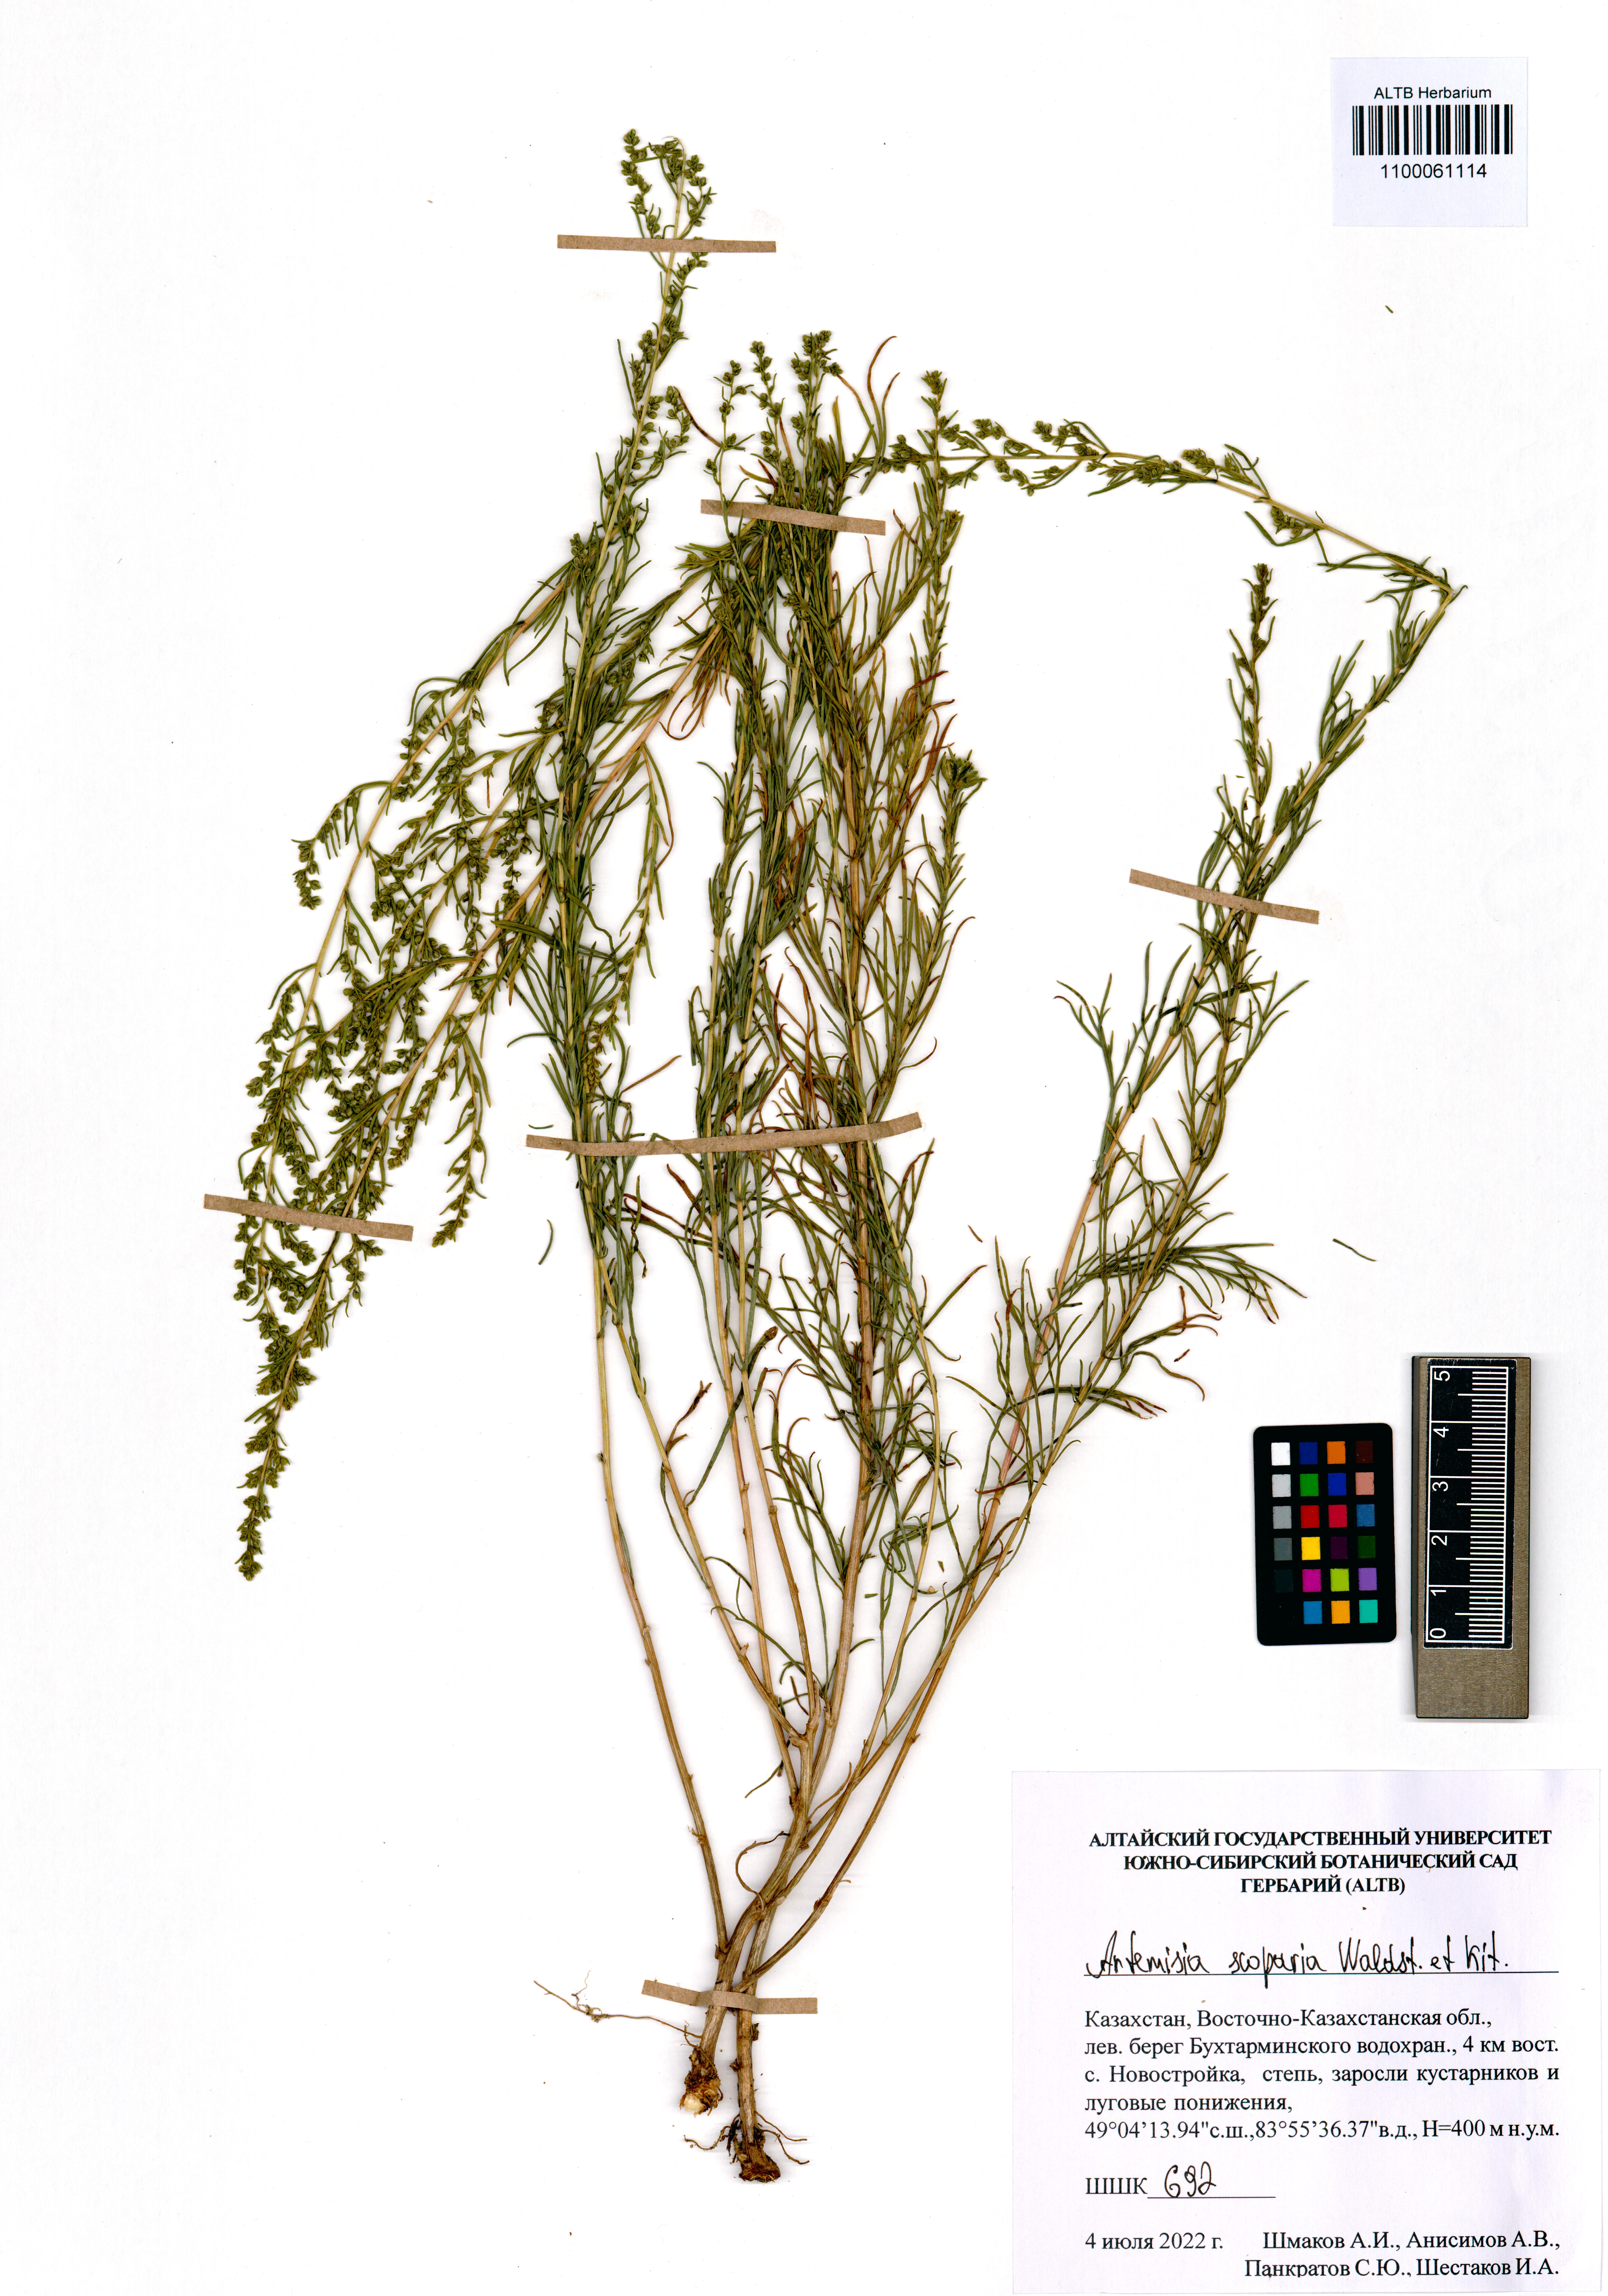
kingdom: Plantae
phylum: Tracheophyta
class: Magnoliopsida
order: Asterales
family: Asteraceae
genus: Artemisia
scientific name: Artemisia scoparia
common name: Redstem wormwood
